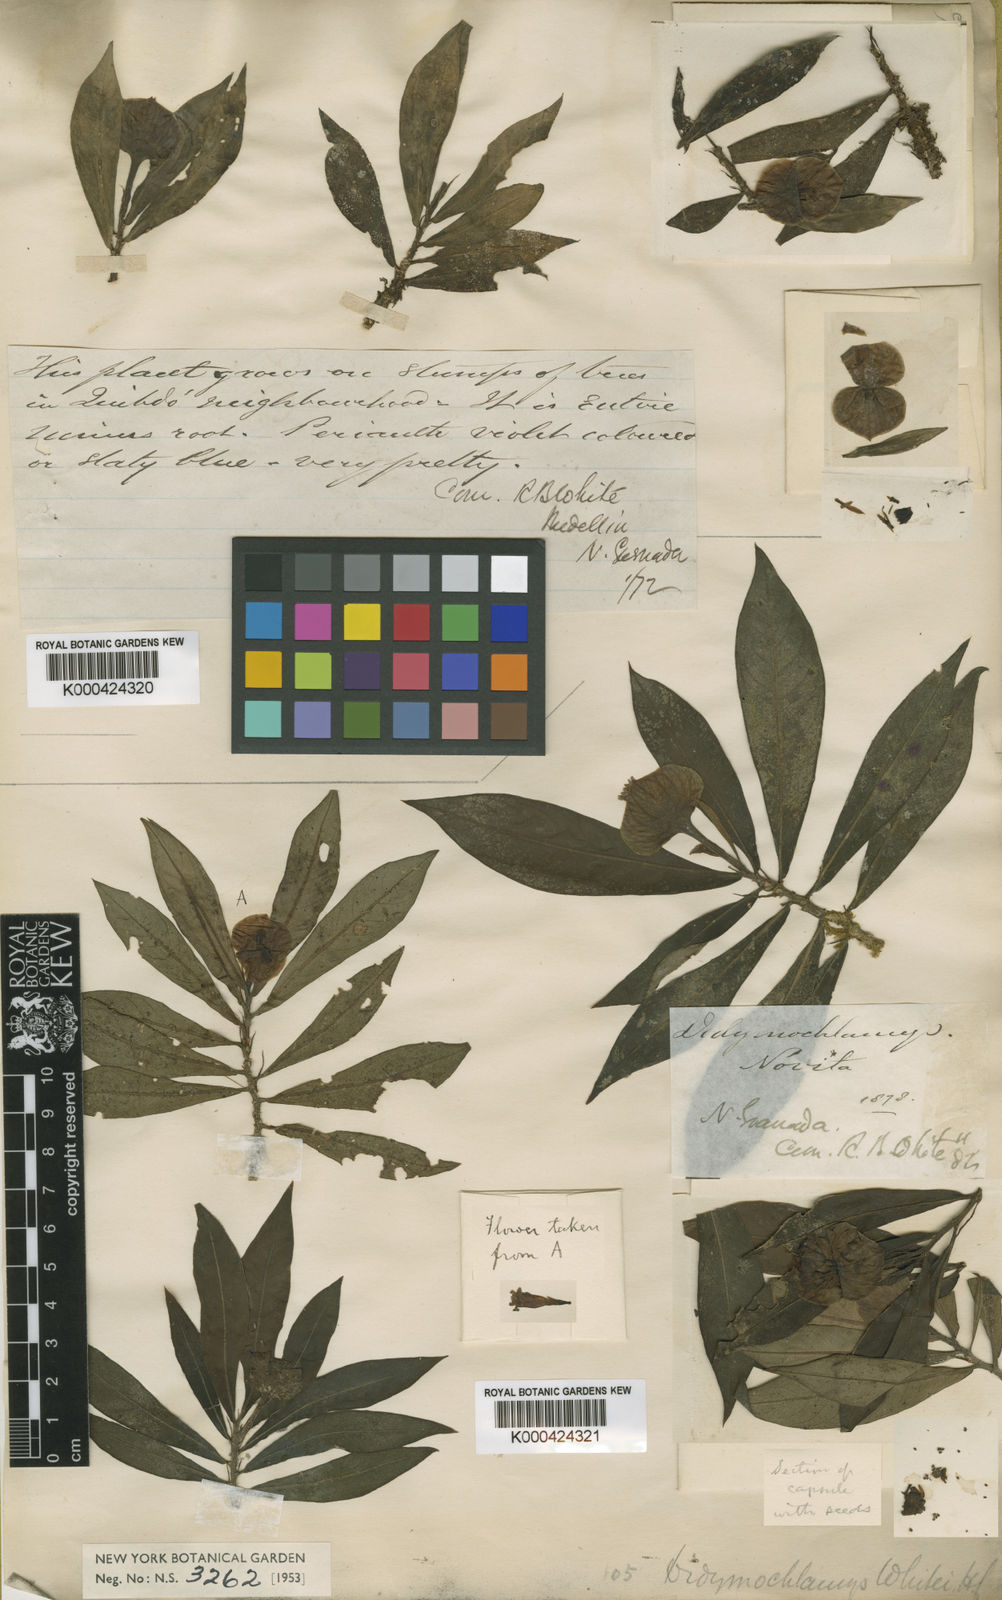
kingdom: Plantae
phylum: Tracheophyta
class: Magnoliopsida
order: Gentianales
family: Rubiaceae
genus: Didymochlamys
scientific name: Didymochlamys whitei
